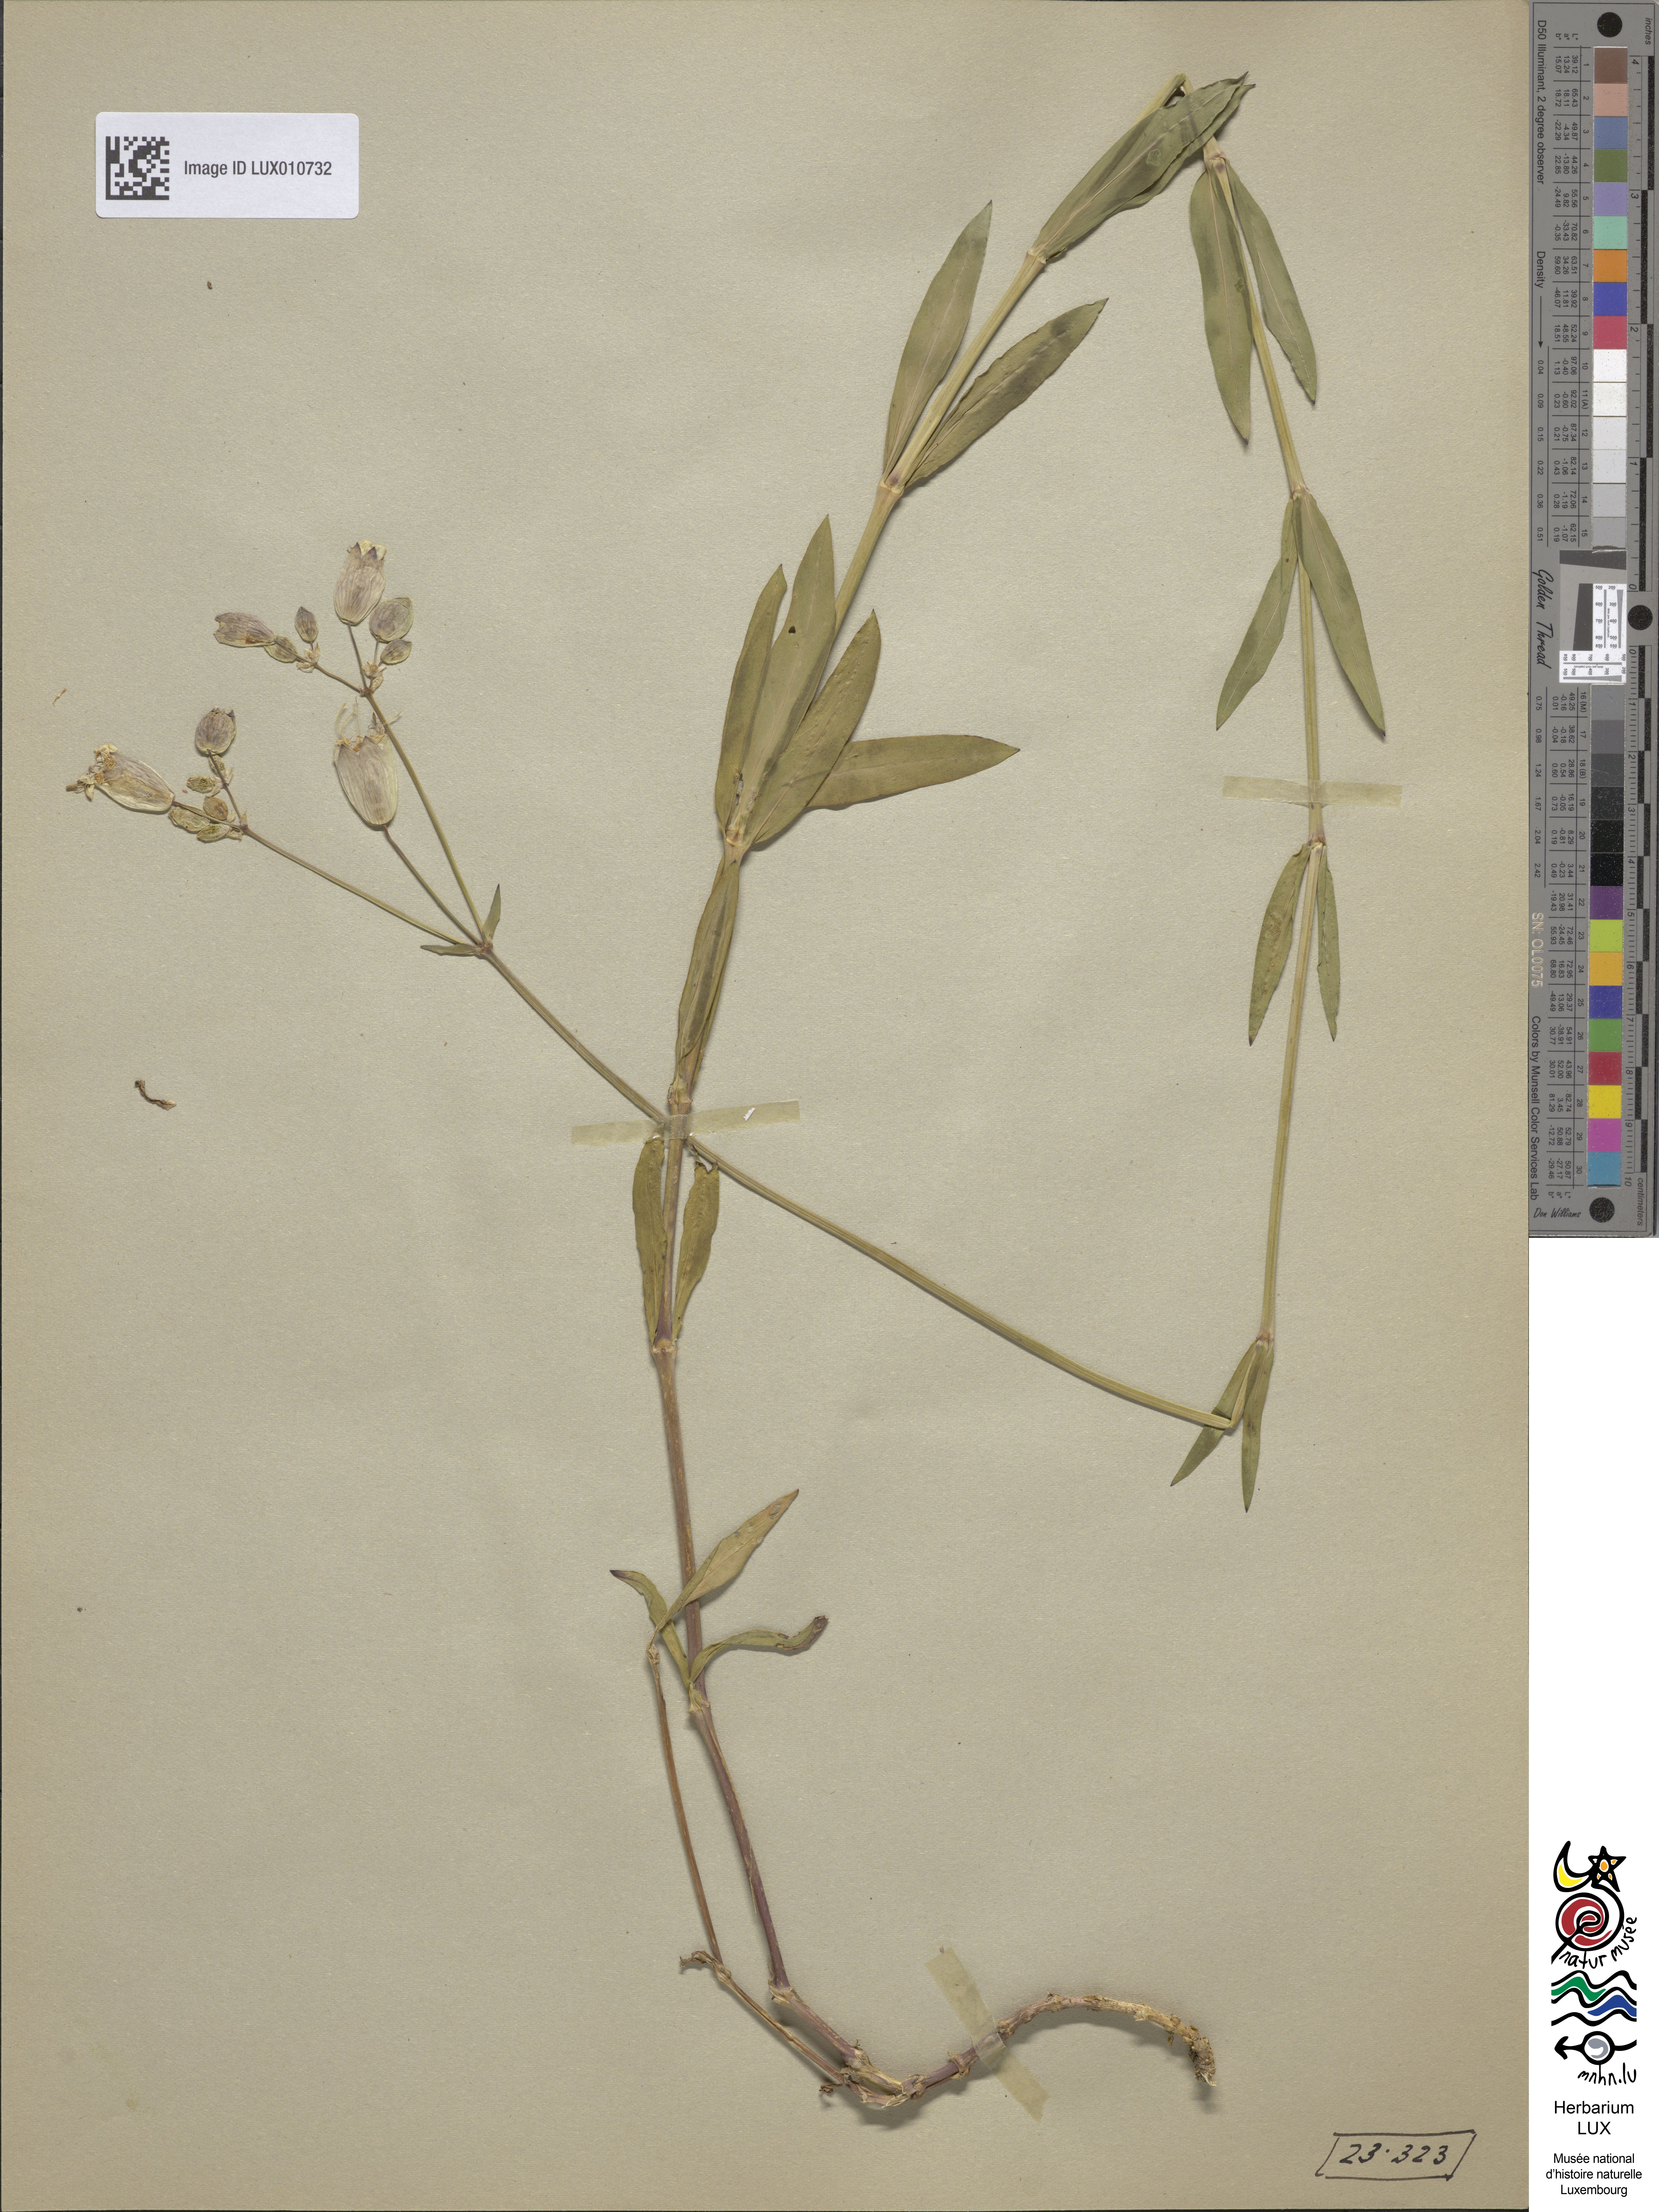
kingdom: Plantae
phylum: Tracheophyta
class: Magnoliopsida
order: Caryophyllales
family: Caryophyllaceae
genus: Silene
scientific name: Silene vulgaris
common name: Bladder campion
